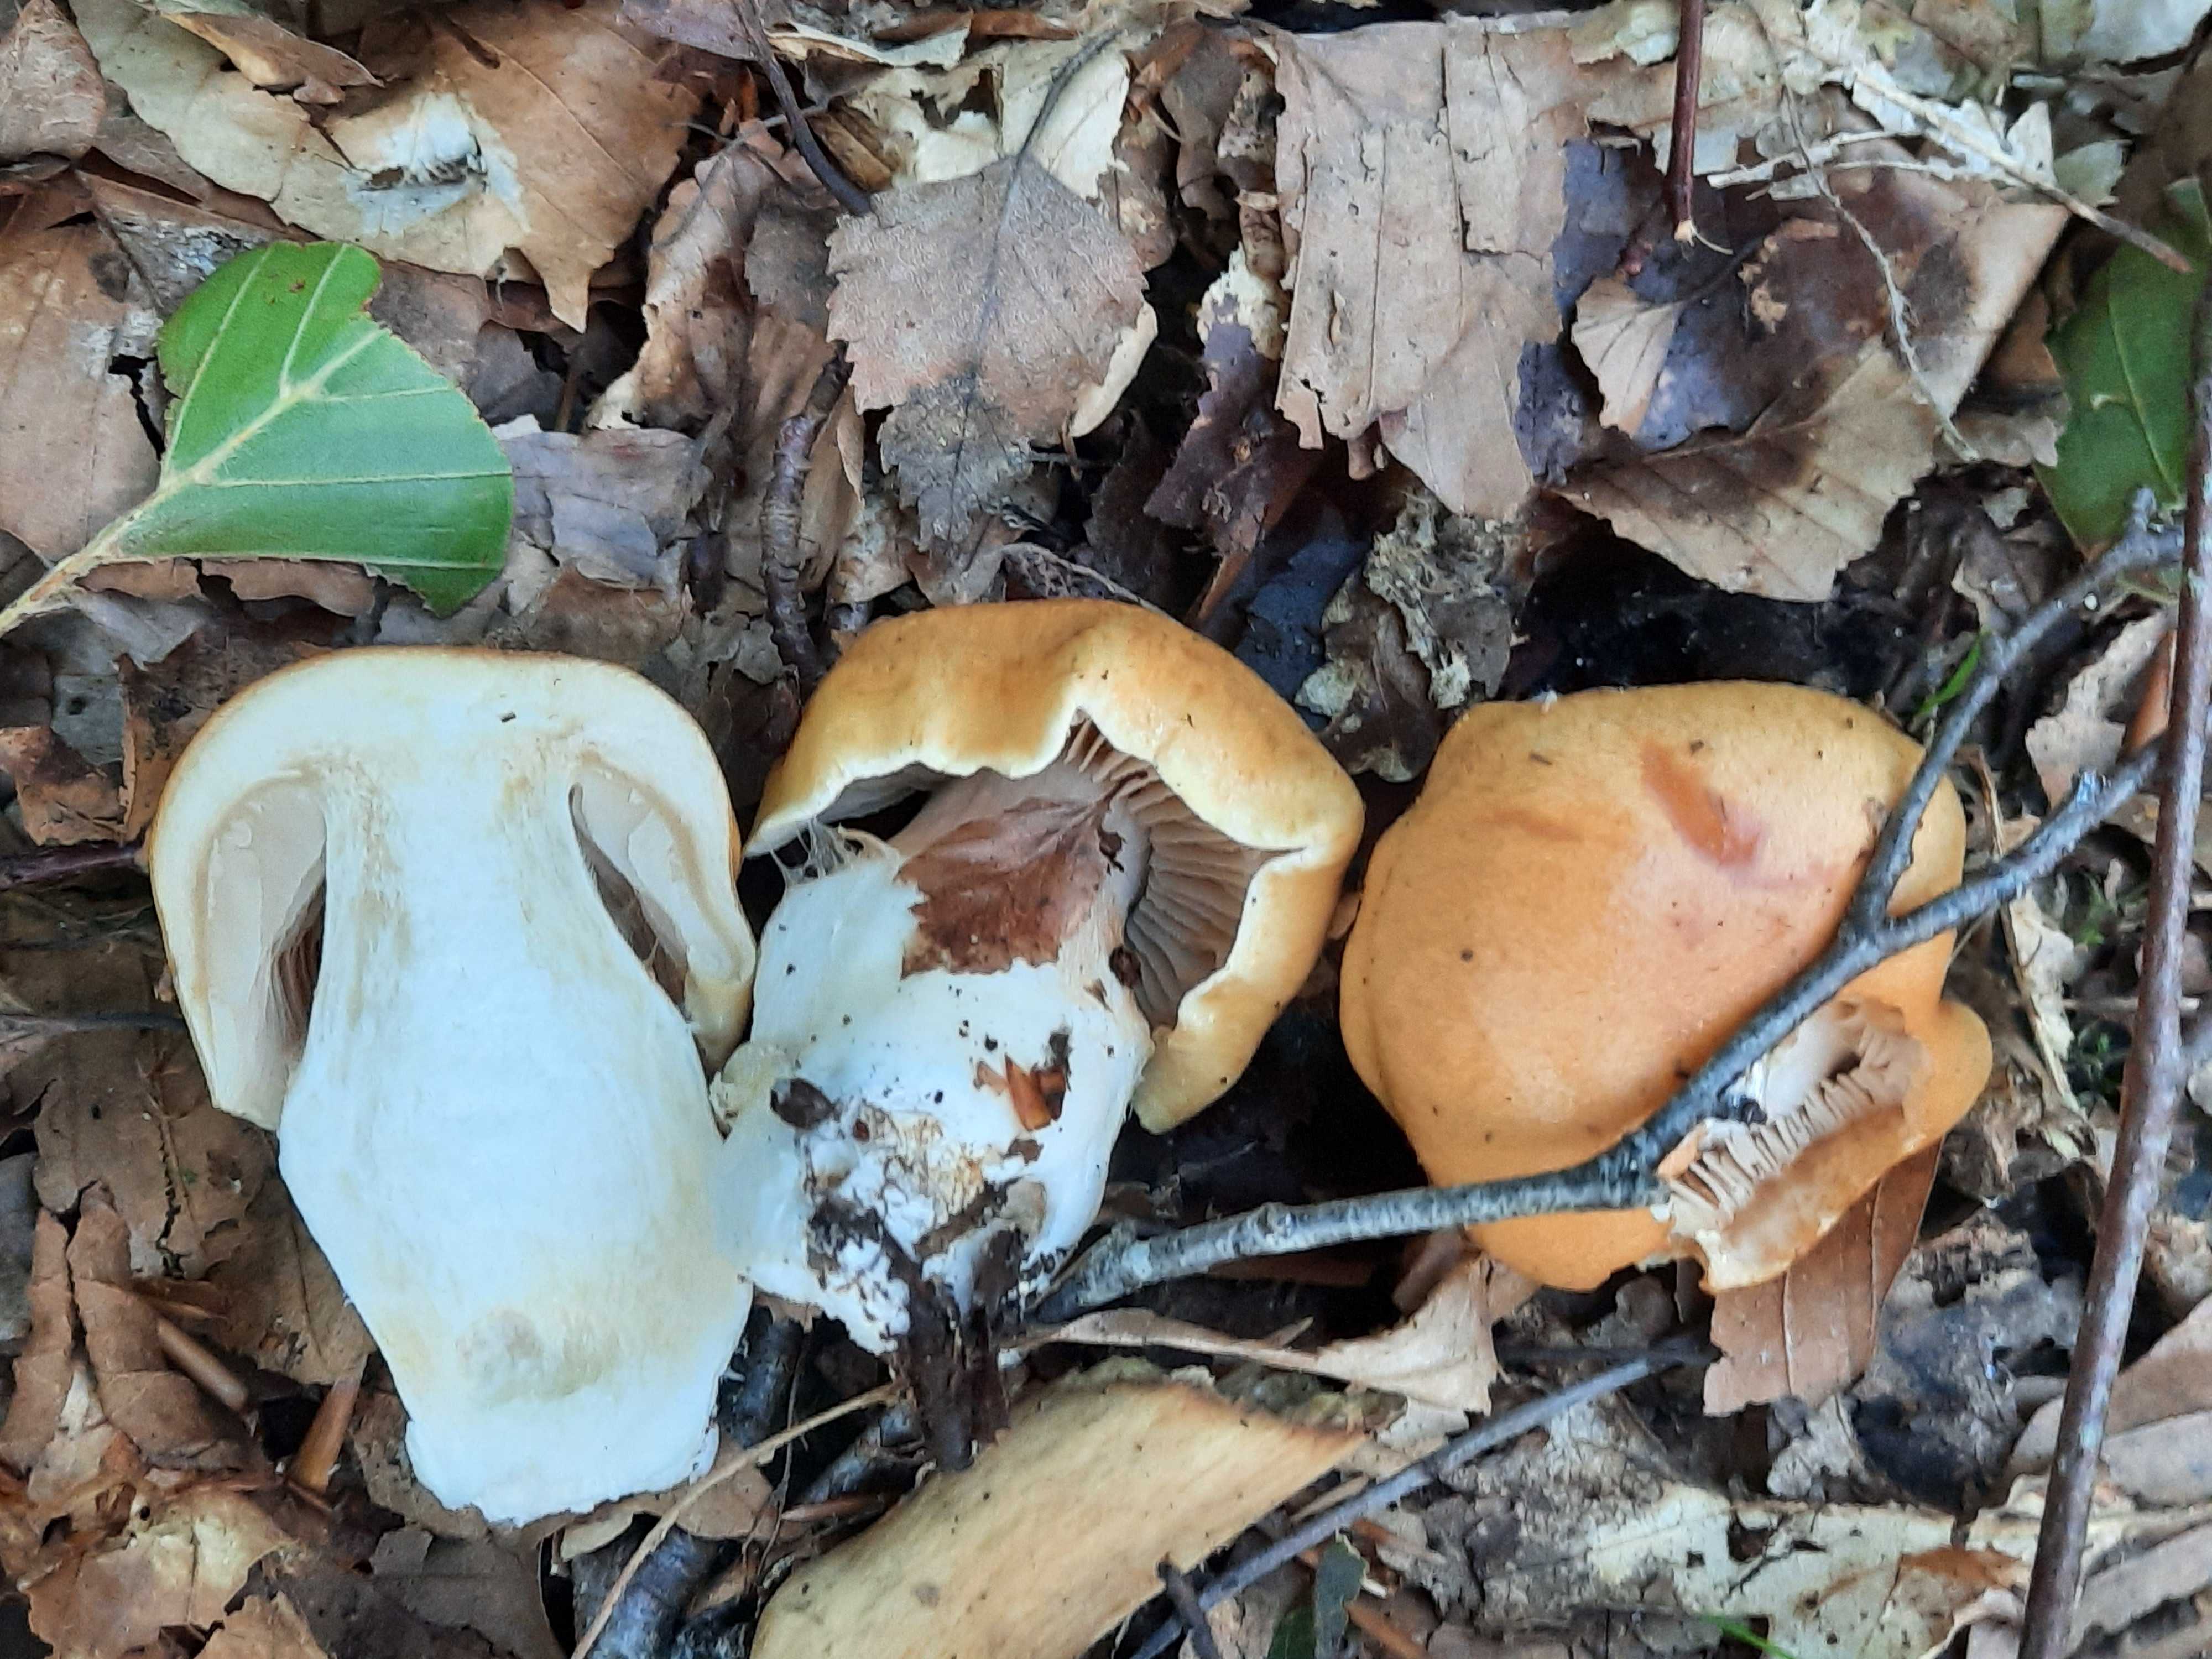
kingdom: Fungi
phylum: Basidiomycota
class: Agaricomycetes
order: Agaricales
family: Cortinariaceae
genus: Thaxterogaster
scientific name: Thaxterogaster emollitus
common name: besk slørhat
